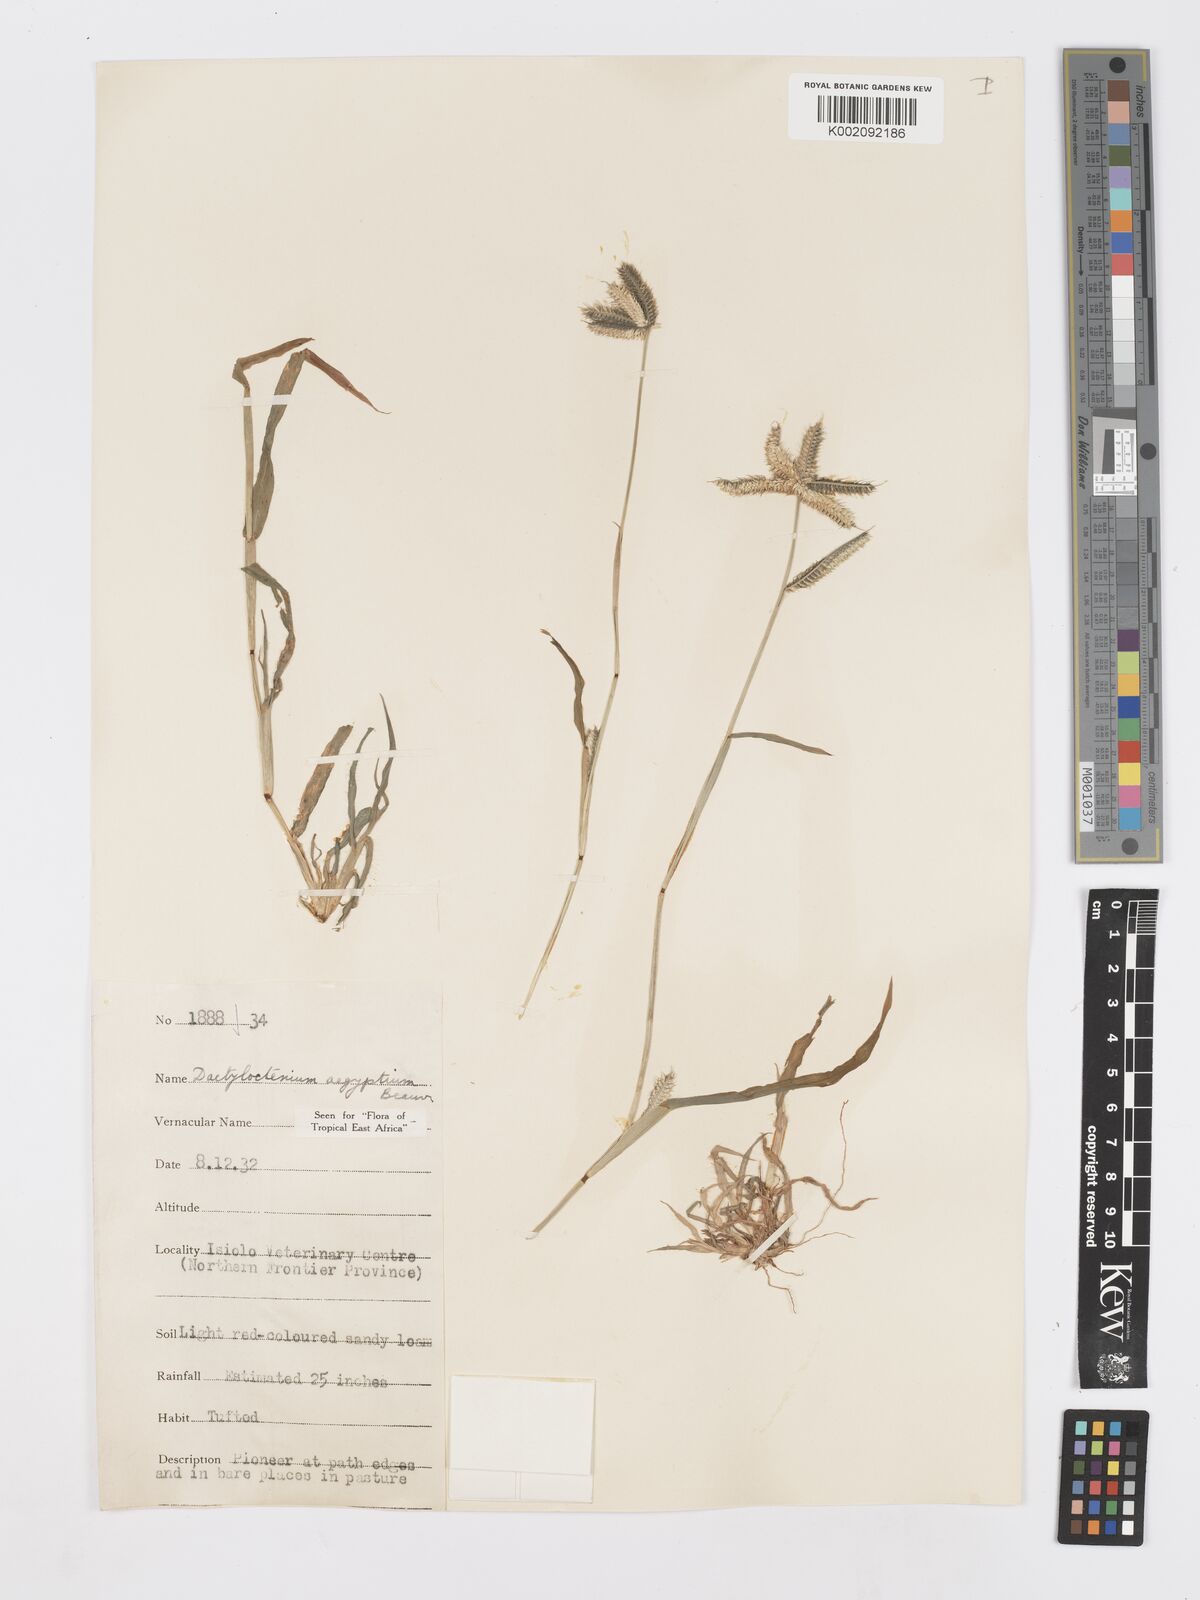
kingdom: Plantae
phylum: Tracheophyta
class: Liliopsida
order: Poales
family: Poaceae
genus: Dactyloctenium
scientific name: Dactyloctenium aegyptium
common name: Egyptian grass
